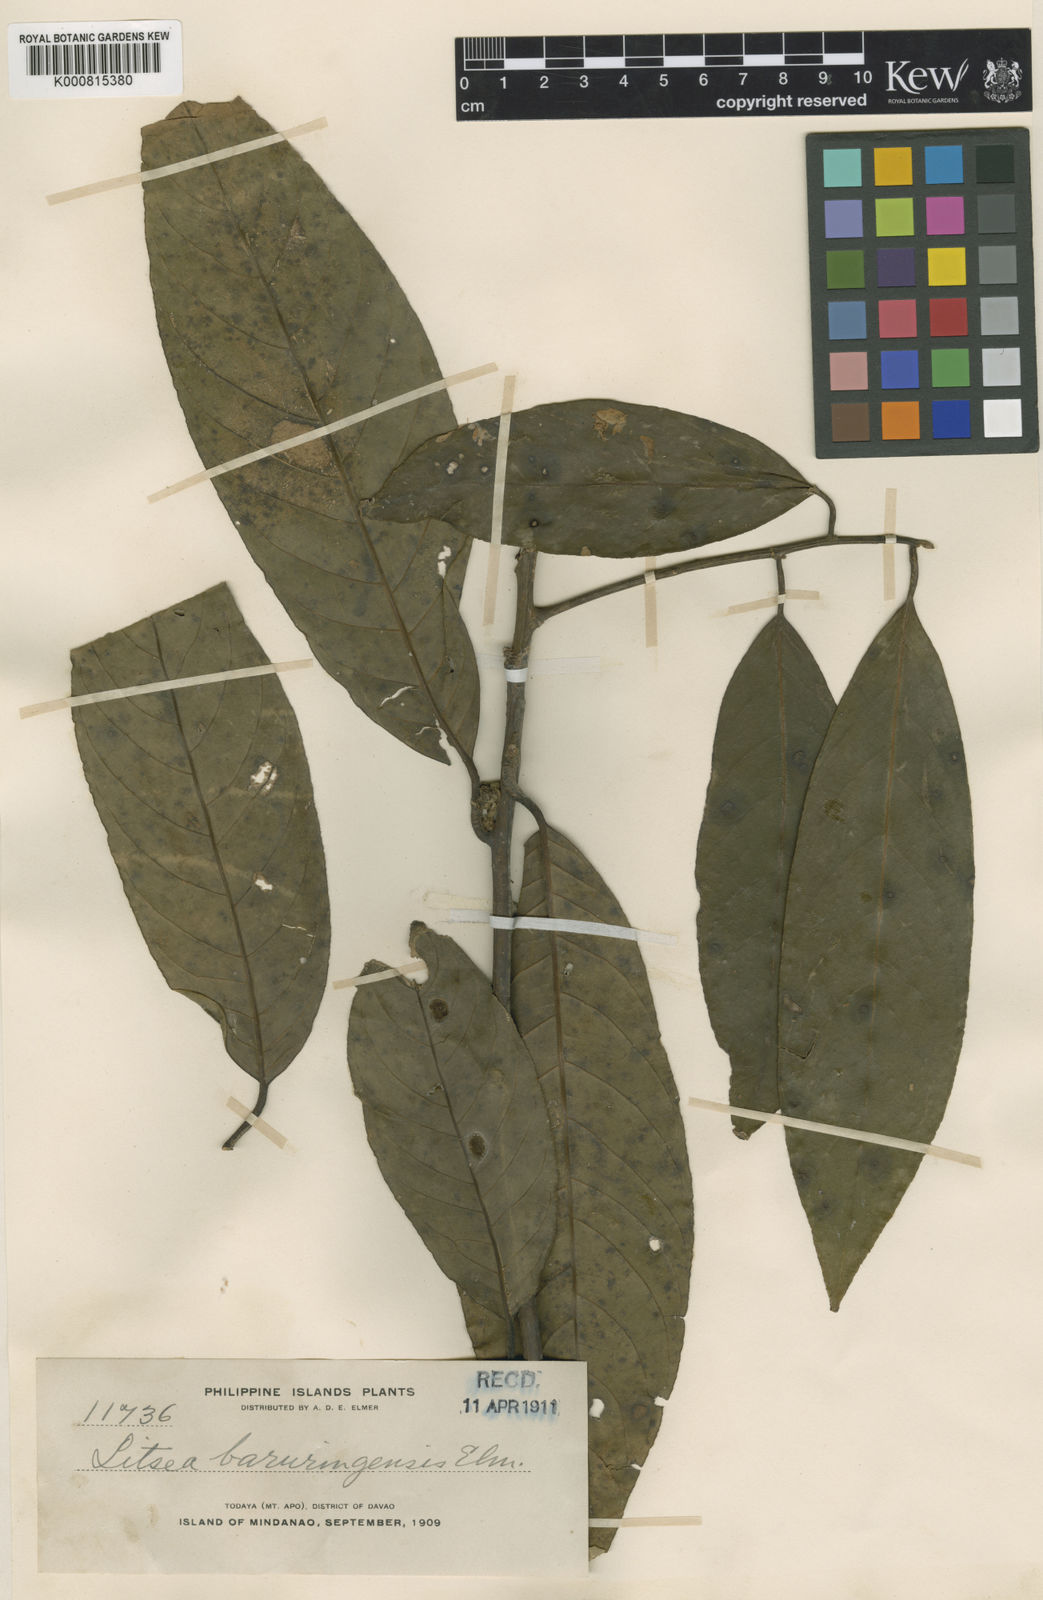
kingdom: Plantae
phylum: Tracheophyta
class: Magnoliopsida
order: Laurales
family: Lauraceae
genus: Litsea
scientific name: Litsea baruringensis
